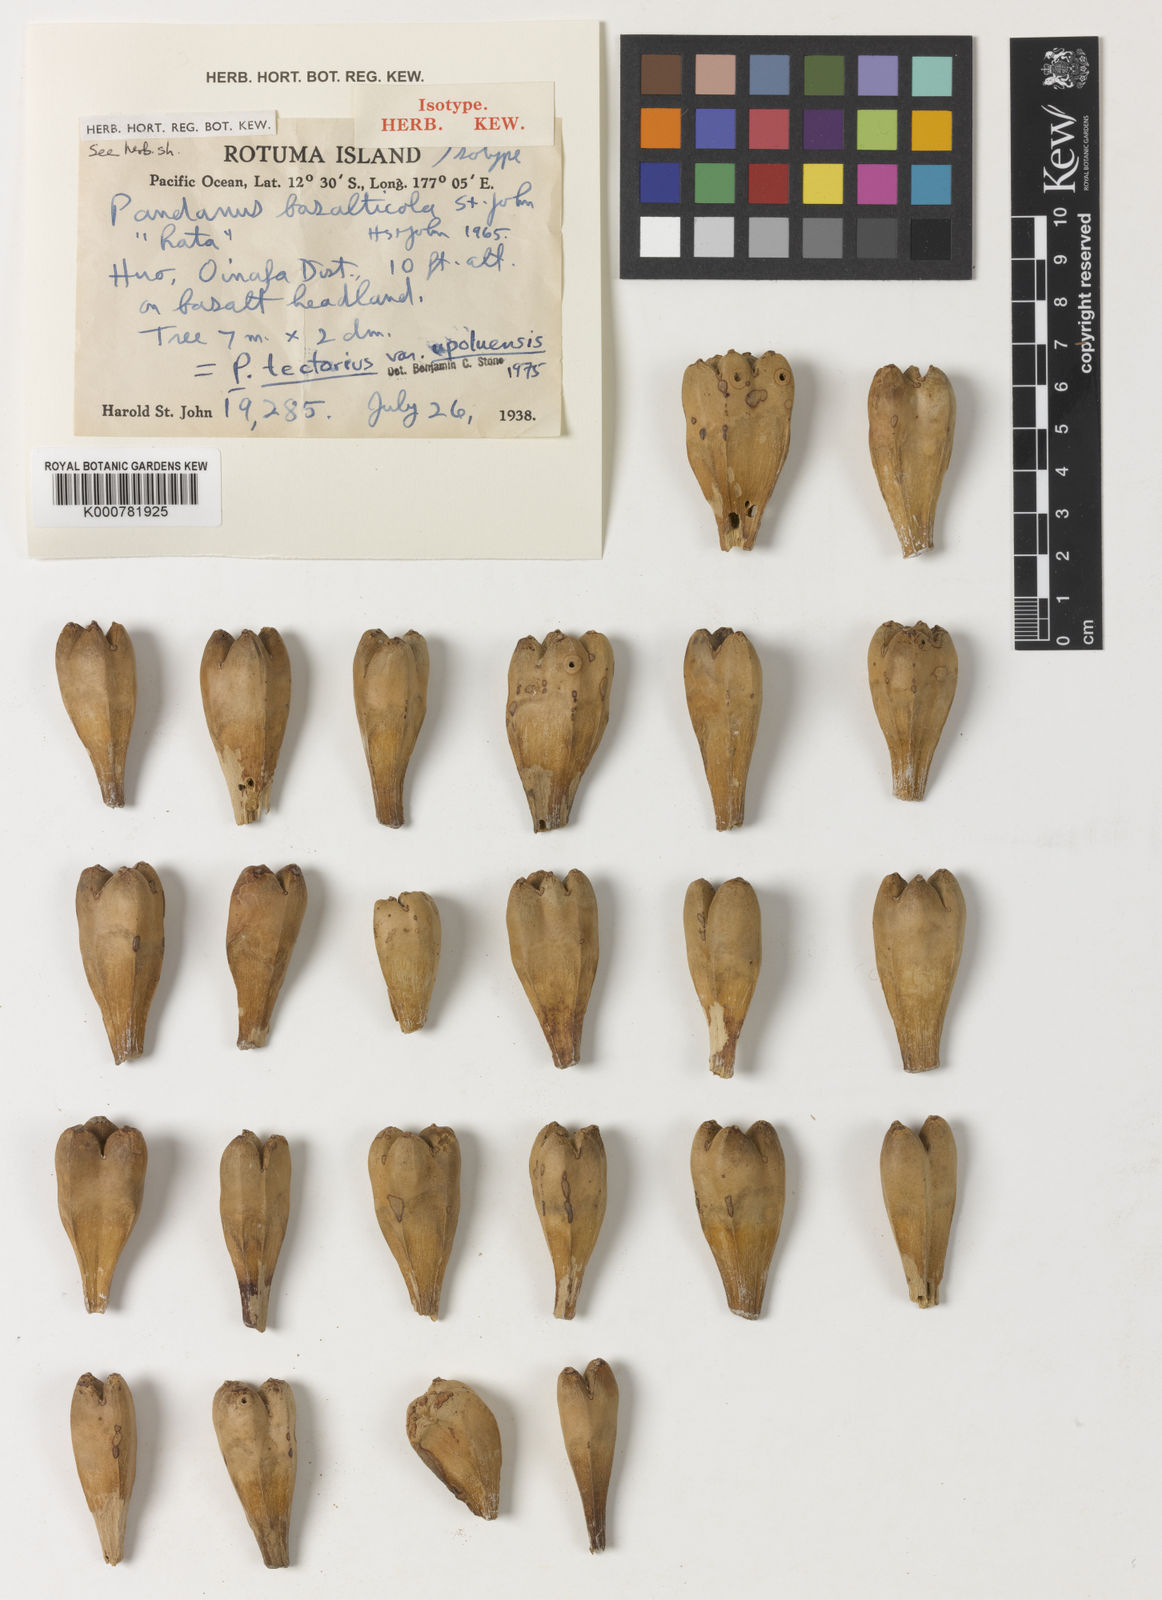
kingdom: Plantae
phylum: Tracheophyta
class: Liliopsida
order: Pandanales
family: Pandanaceae
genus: Pandanus
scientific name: Pandanus basalticola
